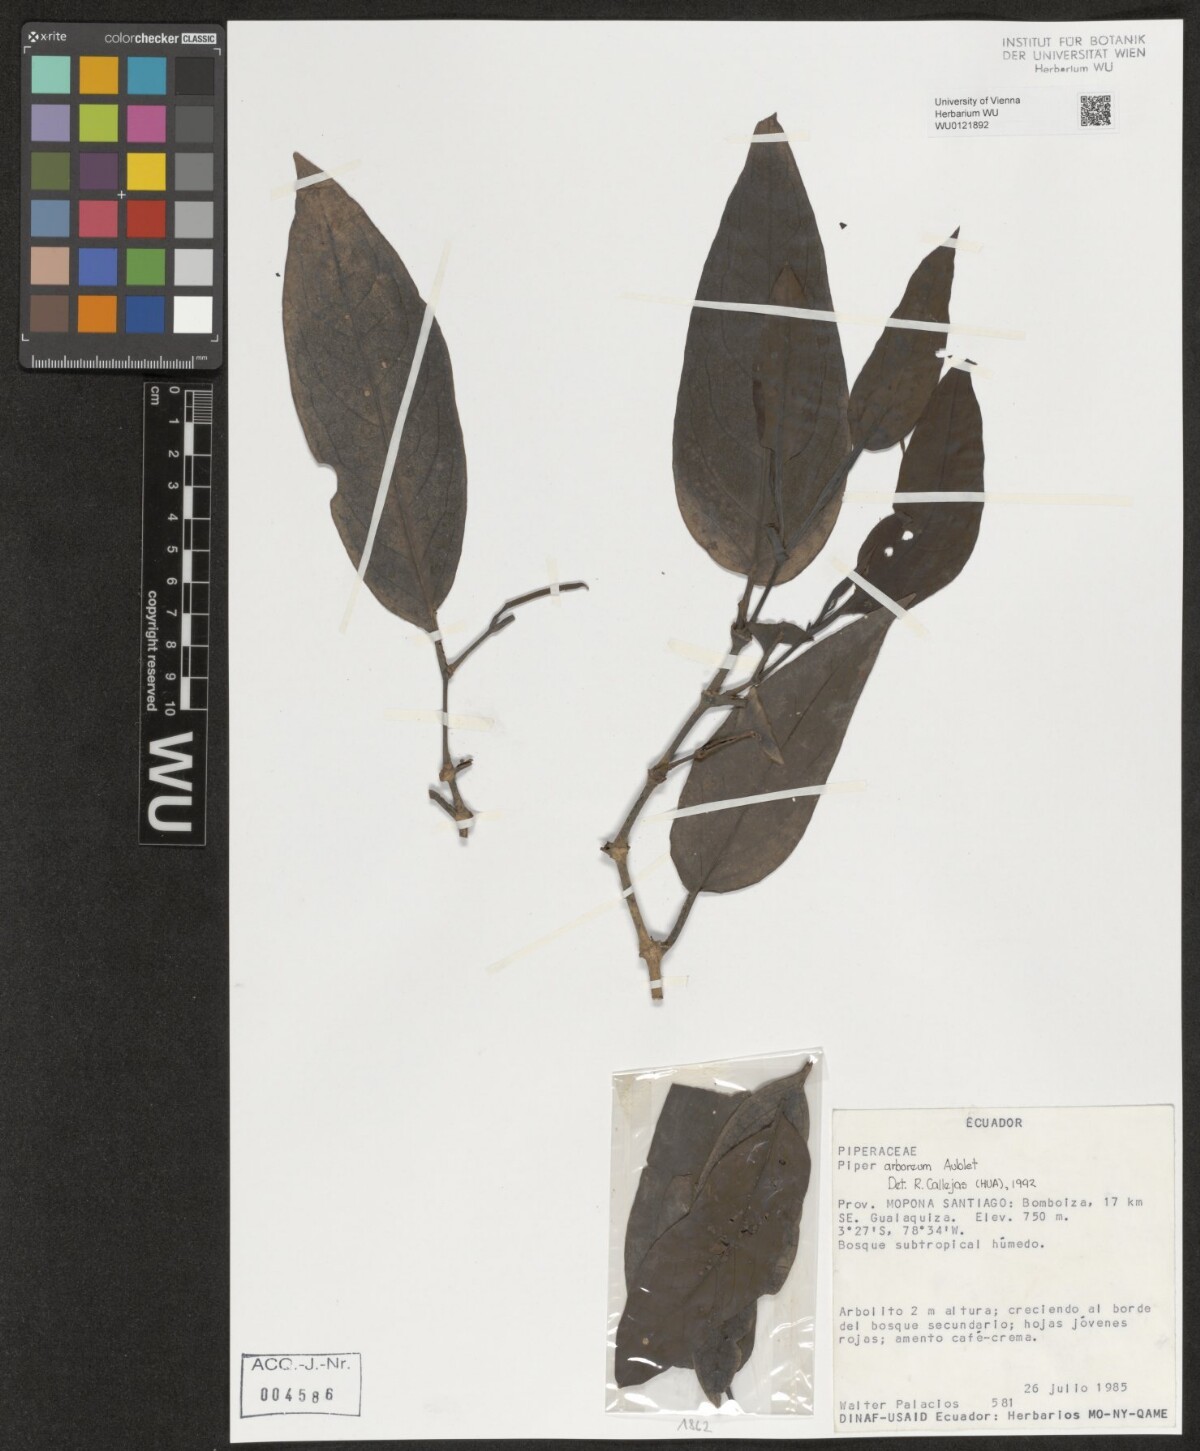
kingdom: Plantae
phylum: Tracheophyta
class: Magnoliopsida
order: Piperales
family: Piperaceae
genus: Piper
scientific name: Piper arboreum
